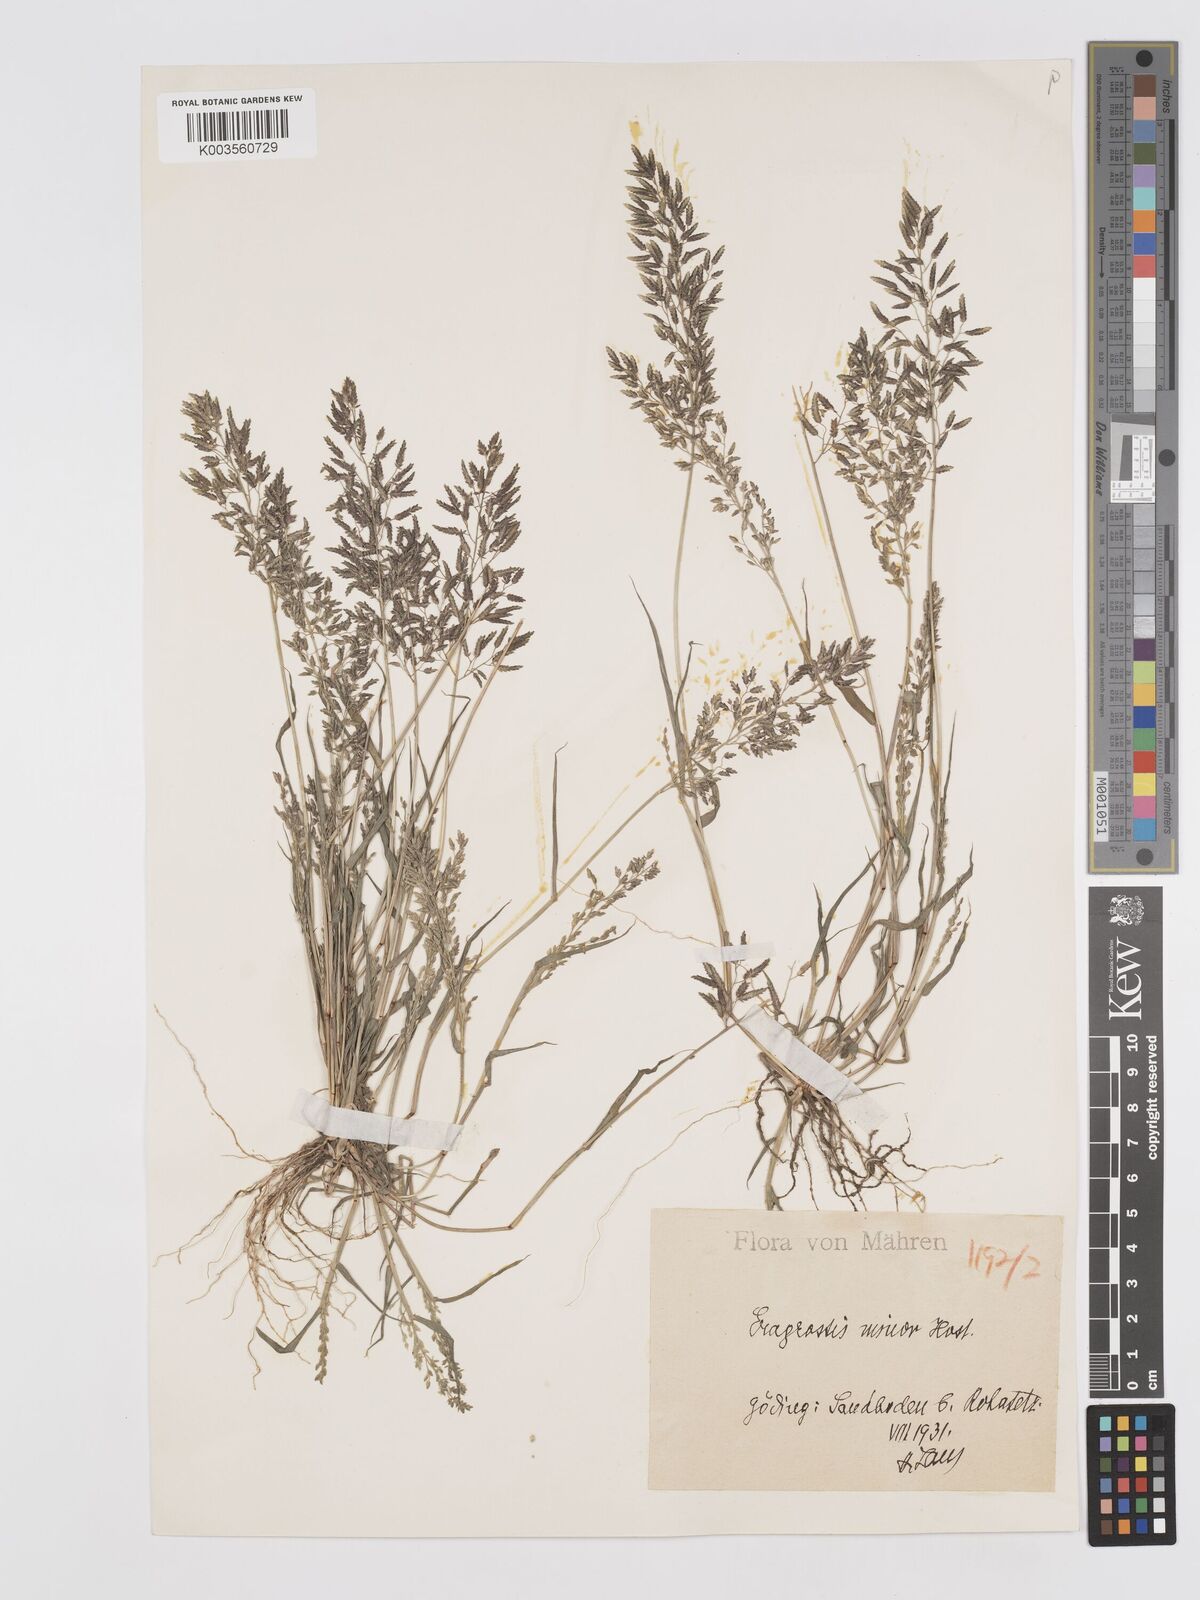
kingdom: Plantae
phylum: Tracheophyta
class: Liliopsida
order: Poales
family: Poaceae
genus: Eragrostis
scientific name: Eragrostis minor
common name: Small love-grass
